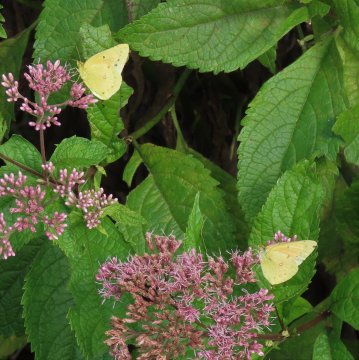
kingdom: Animalia
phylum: Arthropoda
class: Insecta
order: Lepidoptera
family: Pieridae
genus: Colias
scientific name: Colias eurytheme
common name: Orange Sulphur
